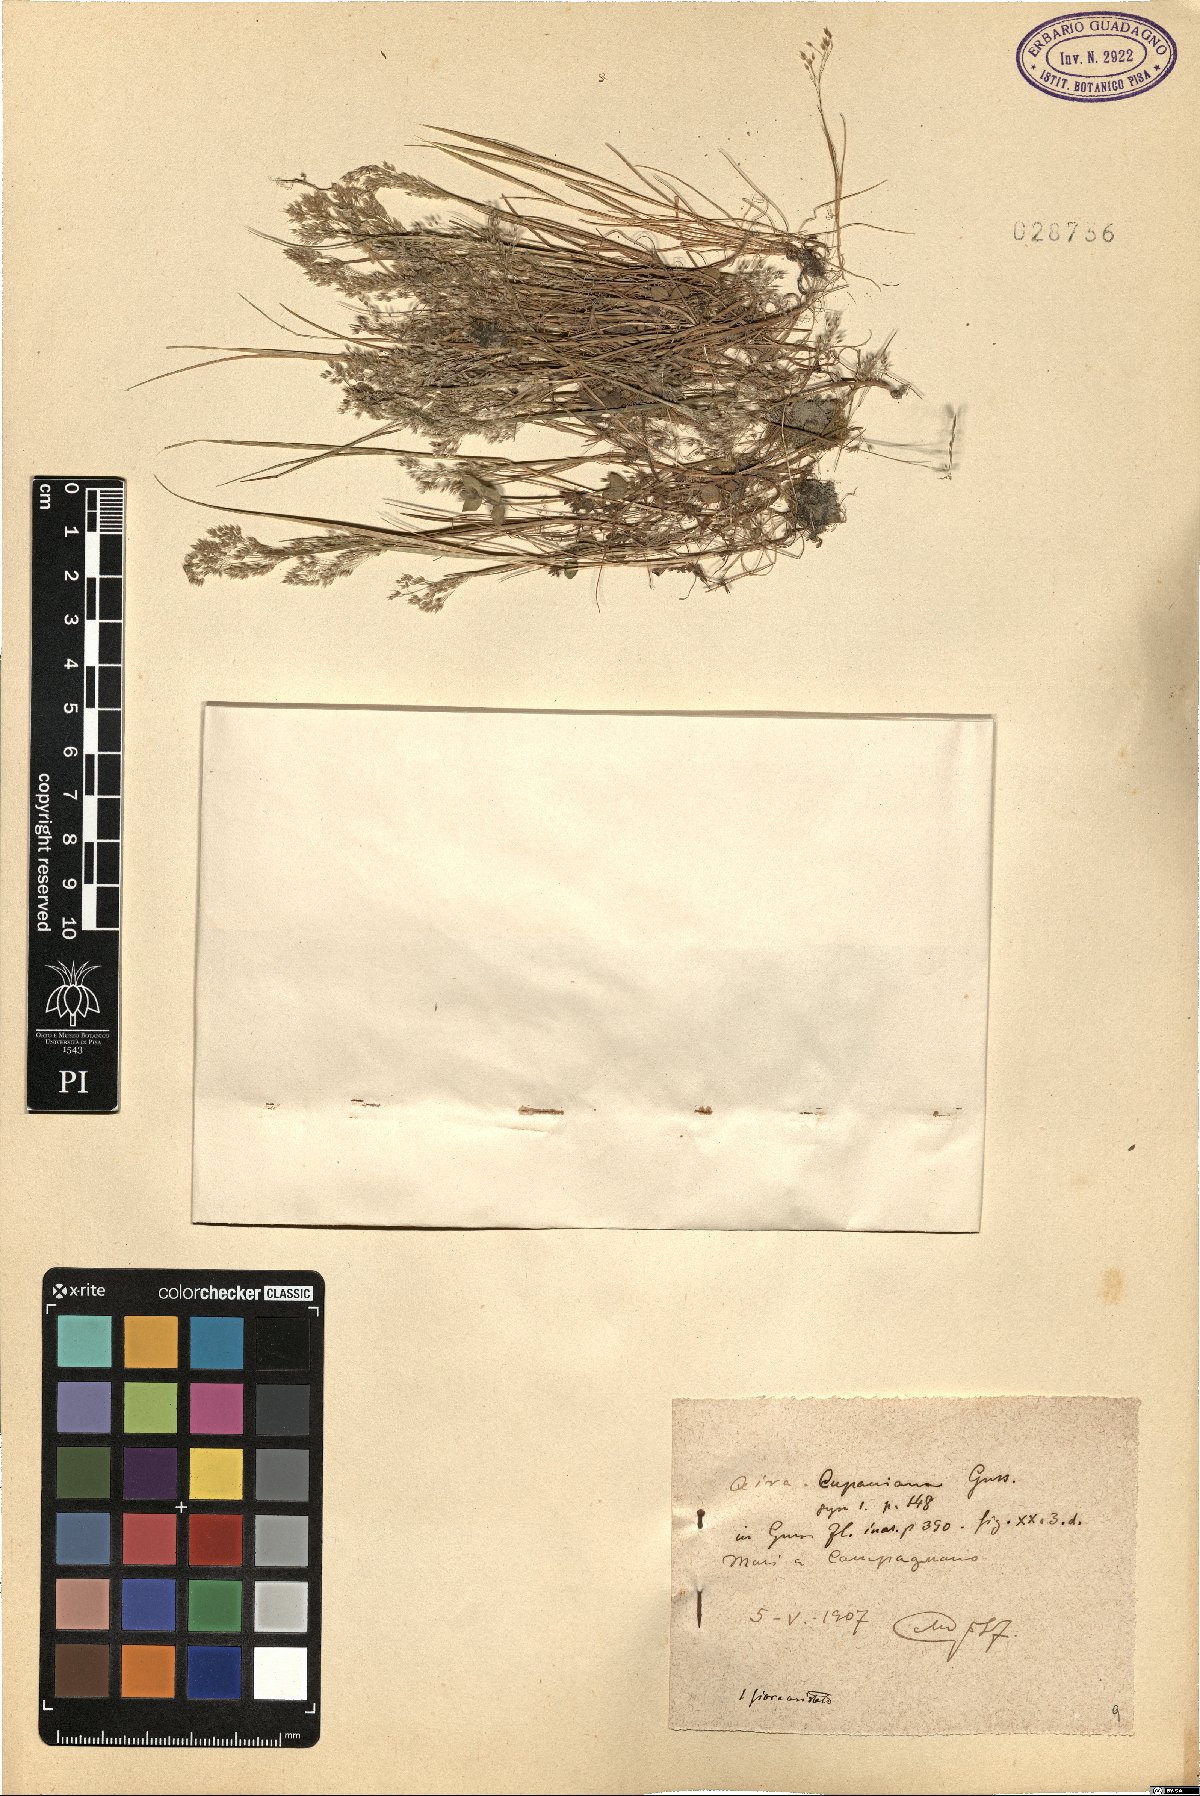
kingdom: Plantae
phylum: Tracheophyta
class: Liliopsida
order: Poales
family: Poaceae
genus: Aira
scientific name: Aira cupaniana
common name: Silver hairgrass
